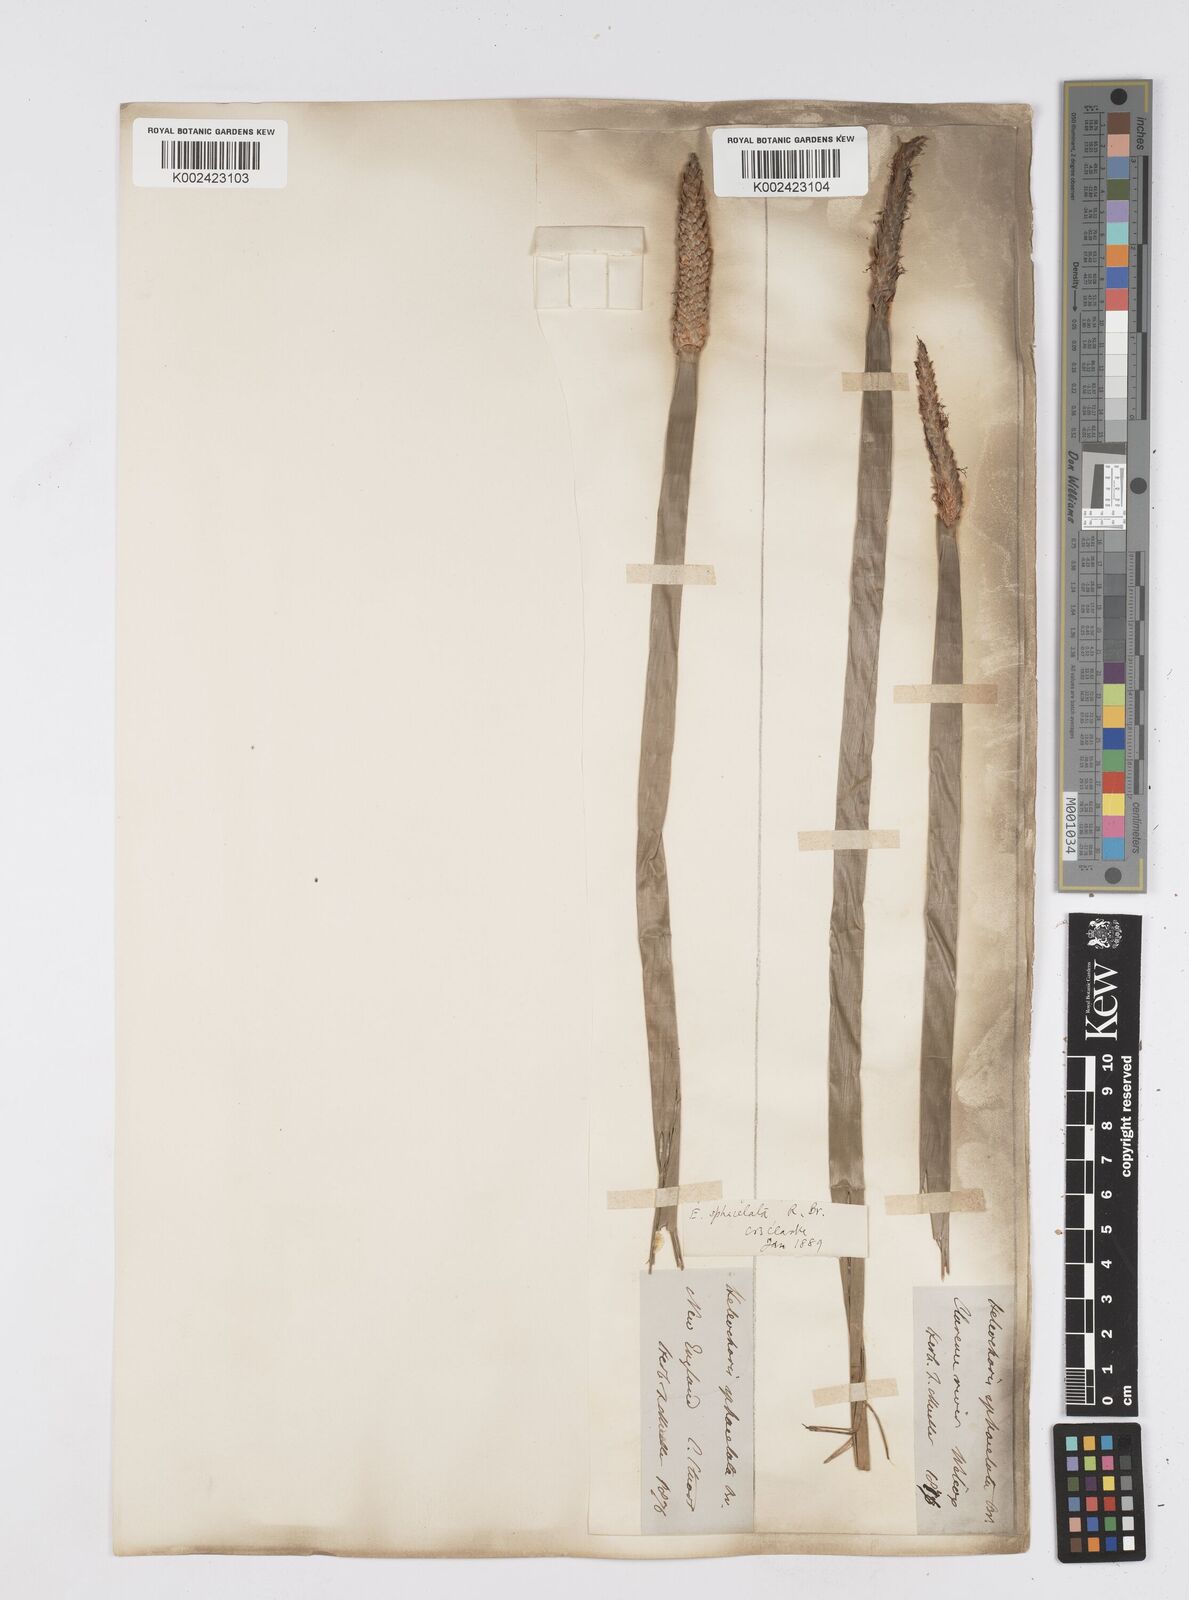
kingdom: Plantae
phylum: Tracheophyta
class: Liliopsida
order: Poales
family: Cyperaceae
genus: Eleocharis
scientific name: Eleocharis sphacelata
